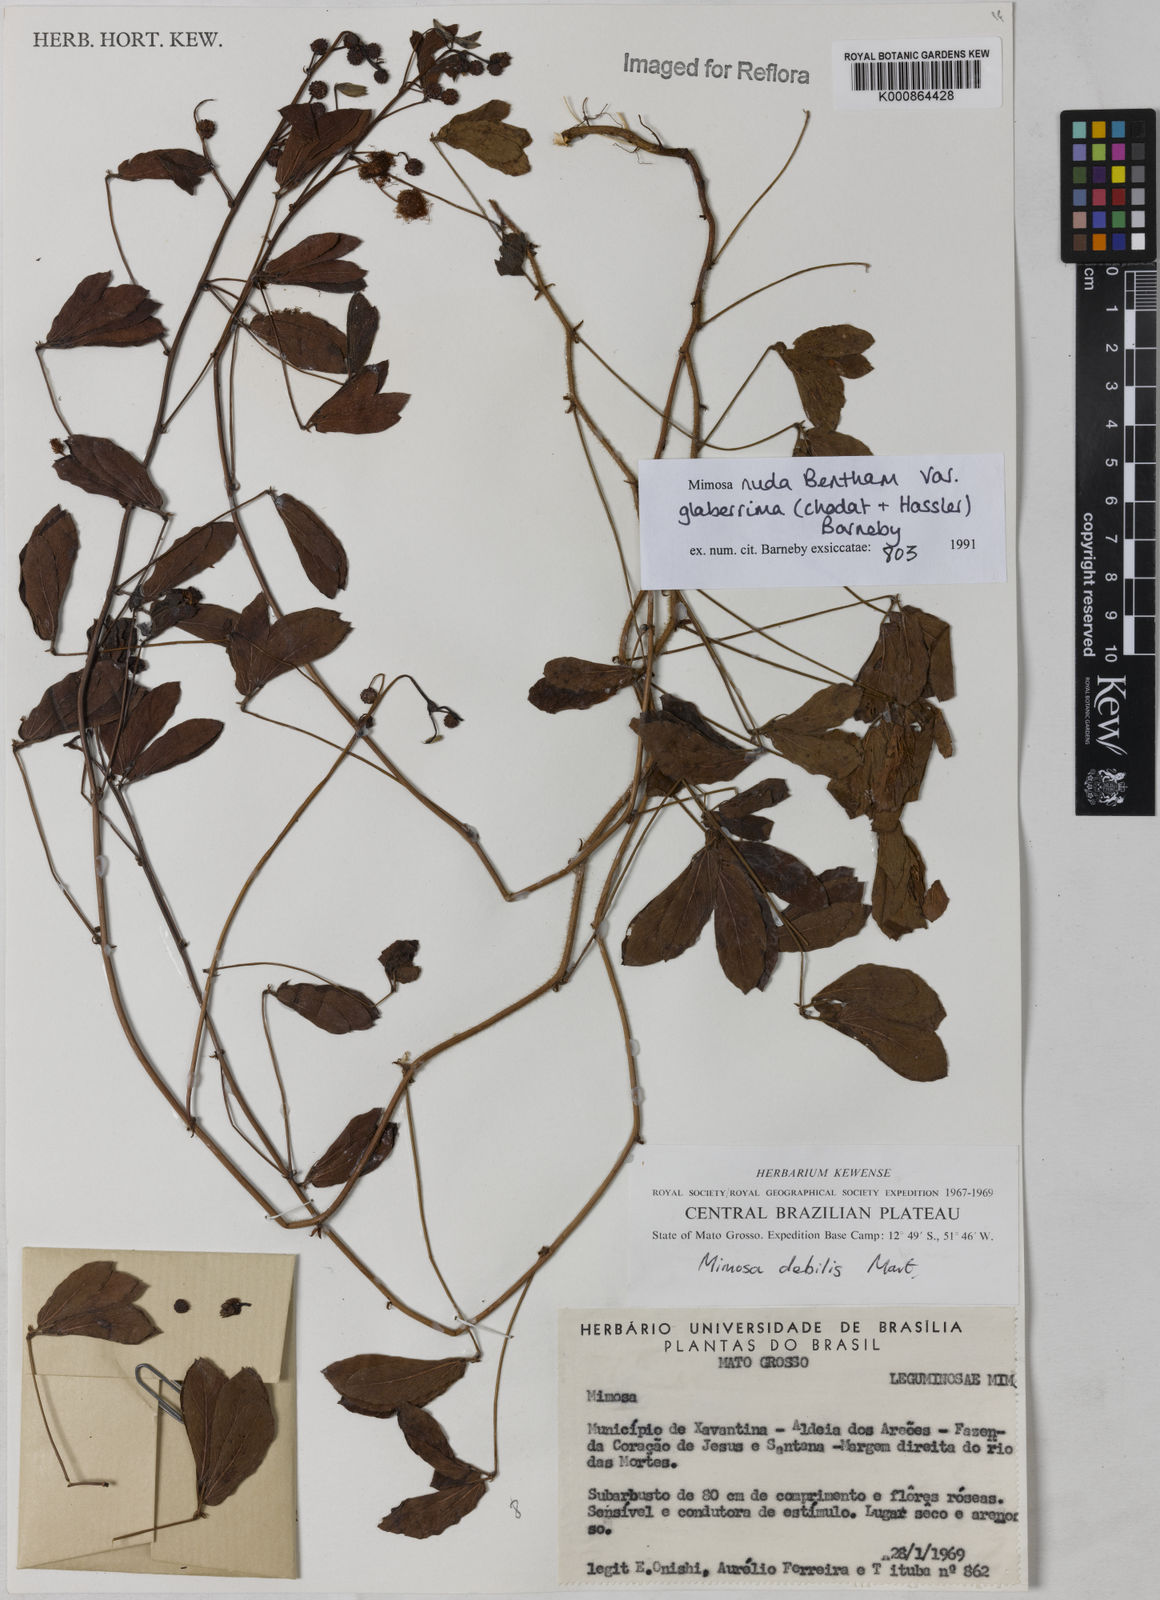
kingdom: Plantae
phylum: Tracheophyta
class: Magnoliopsida
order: Fabales
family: Fabaceae
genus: Mimosa
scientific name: Mimosa debilis
